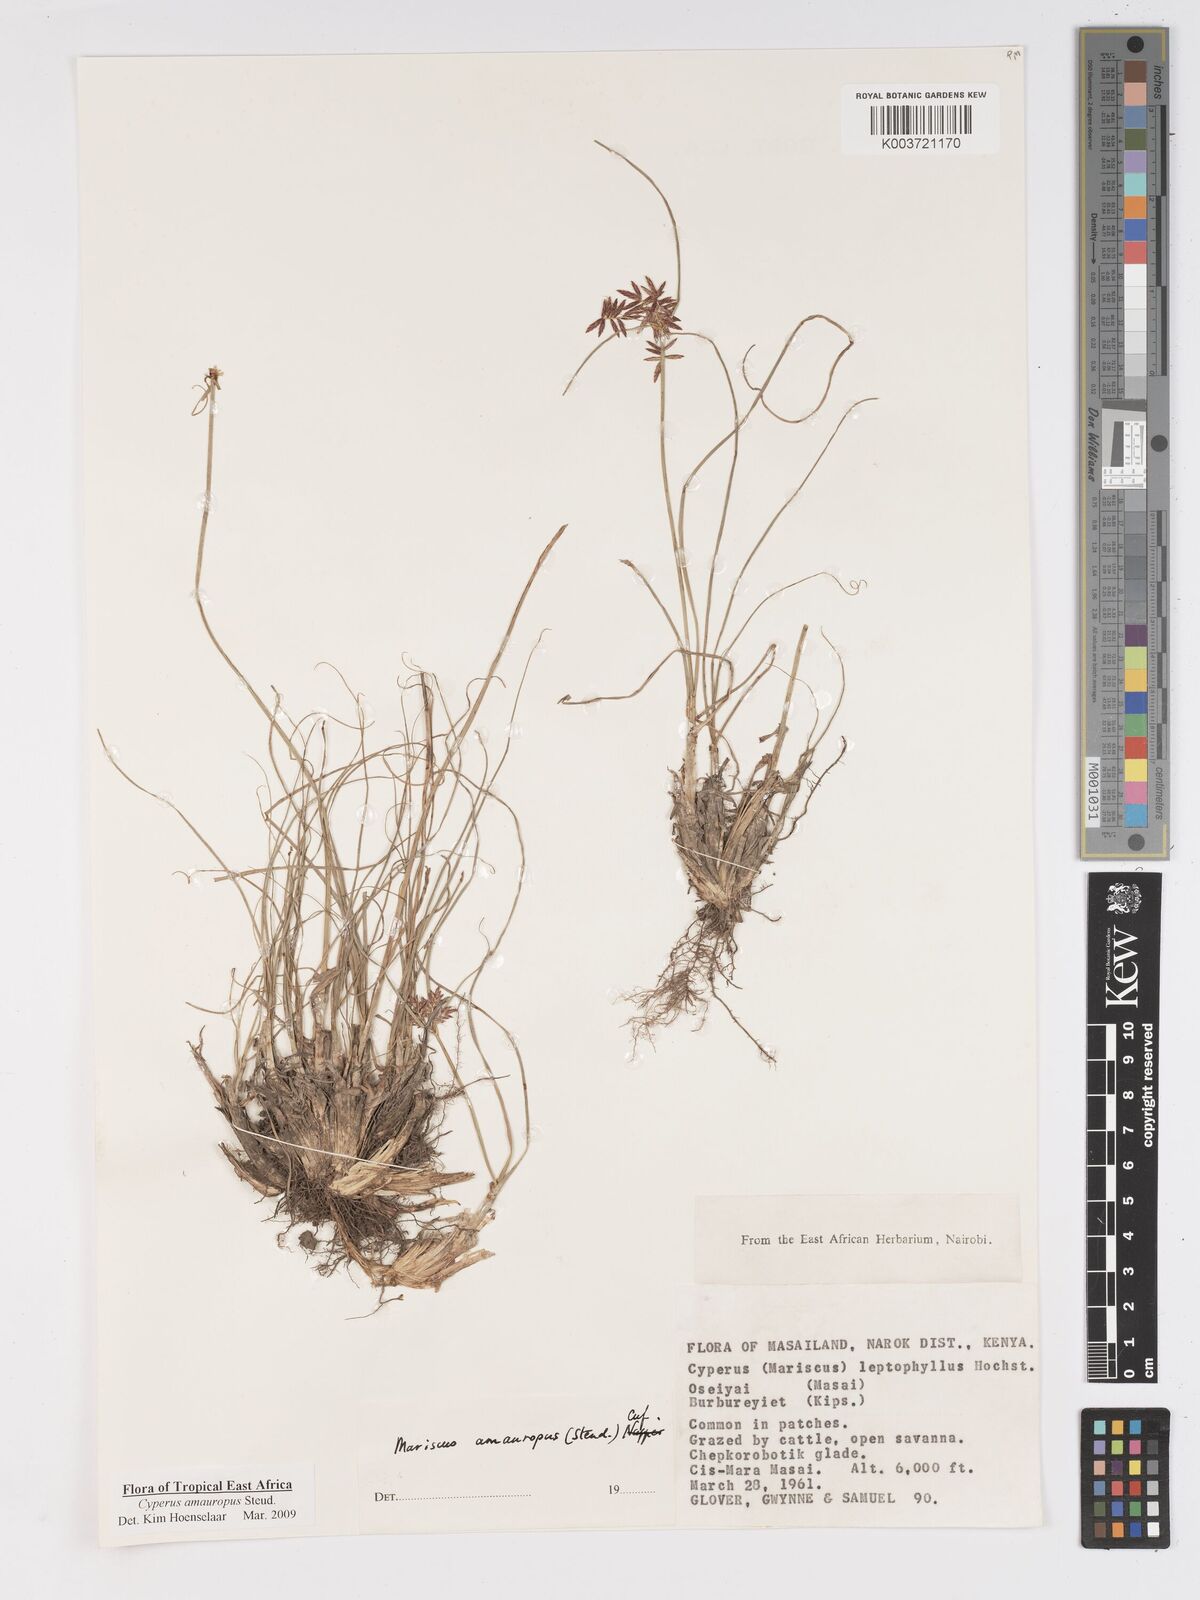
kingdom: Plantae
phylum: Tracheophyta
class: Liliopsida
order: Poales
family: Cyperaceae
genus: Cyperus
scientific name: Cyperus amauropus
